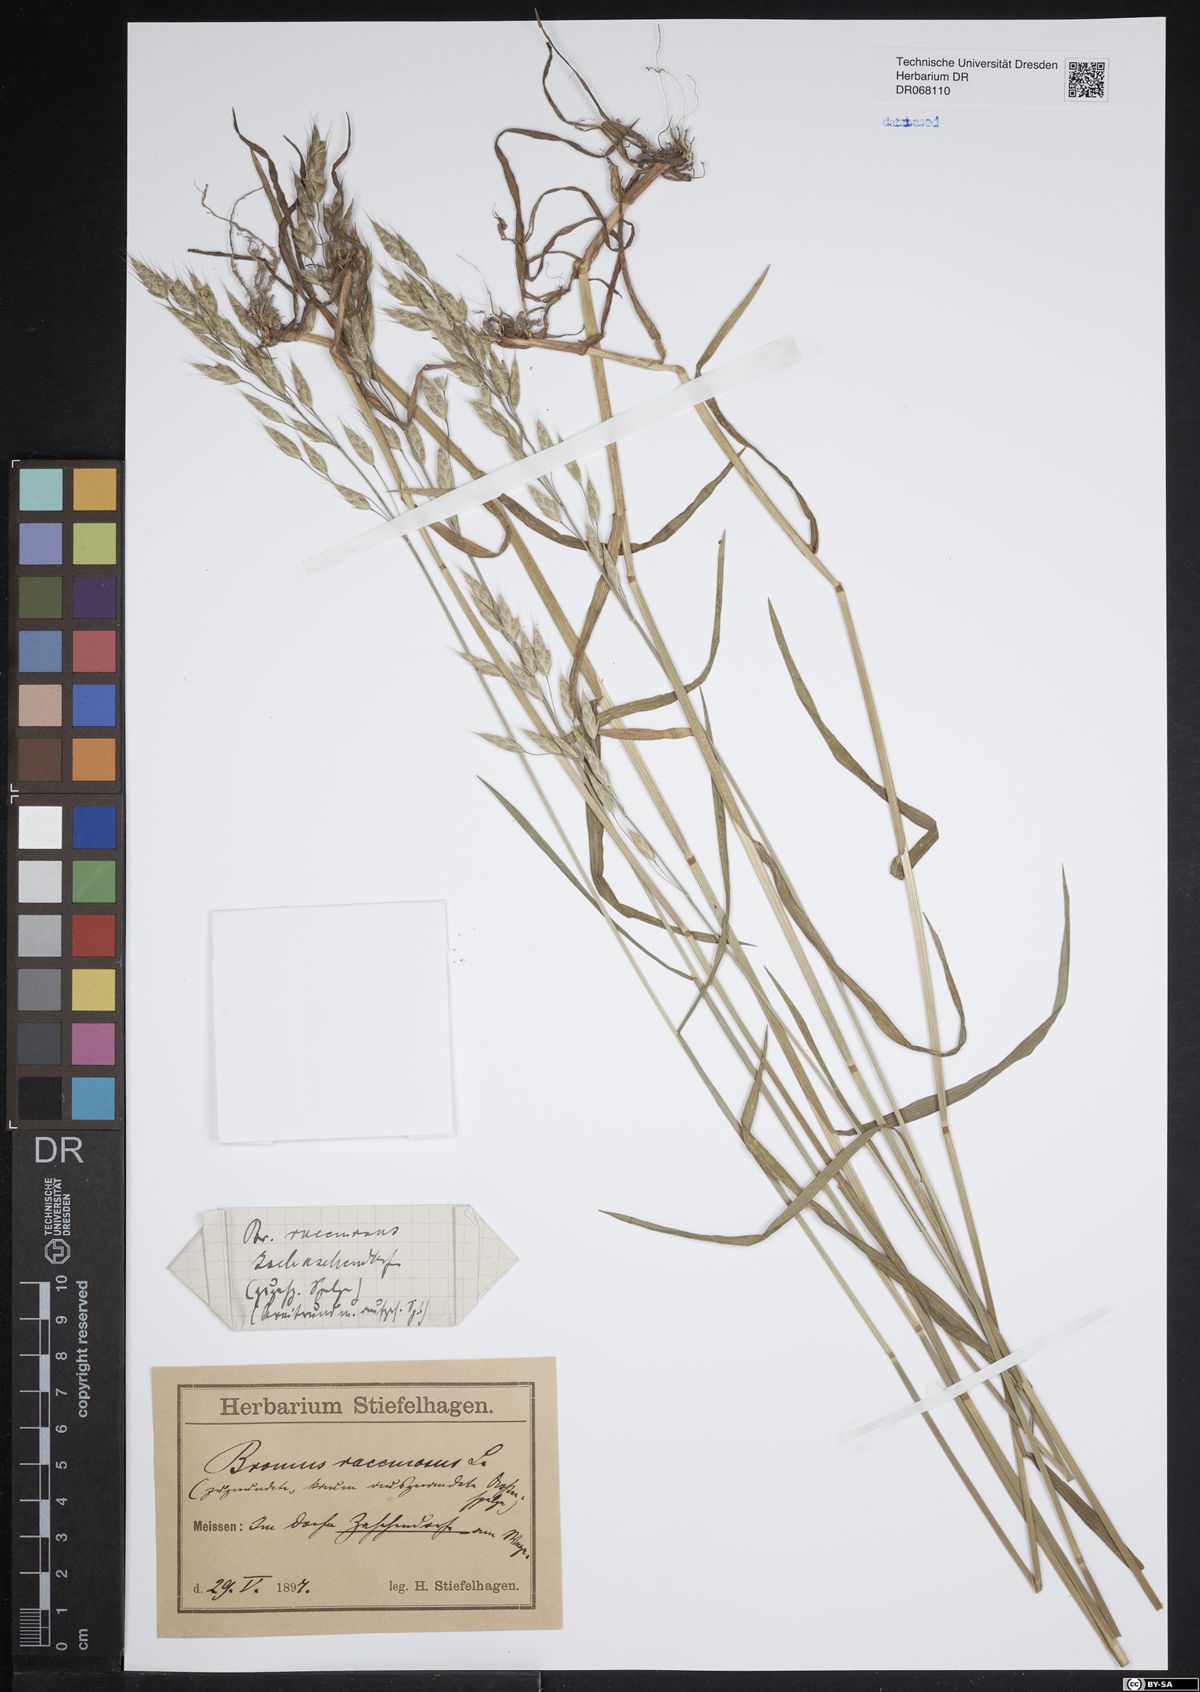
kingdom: Plantae
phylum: Tracheophyta
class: Liliopsida
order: Poales
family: Poaceae
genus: Bromus
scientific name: Bromus racemosus
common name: Bald brome
